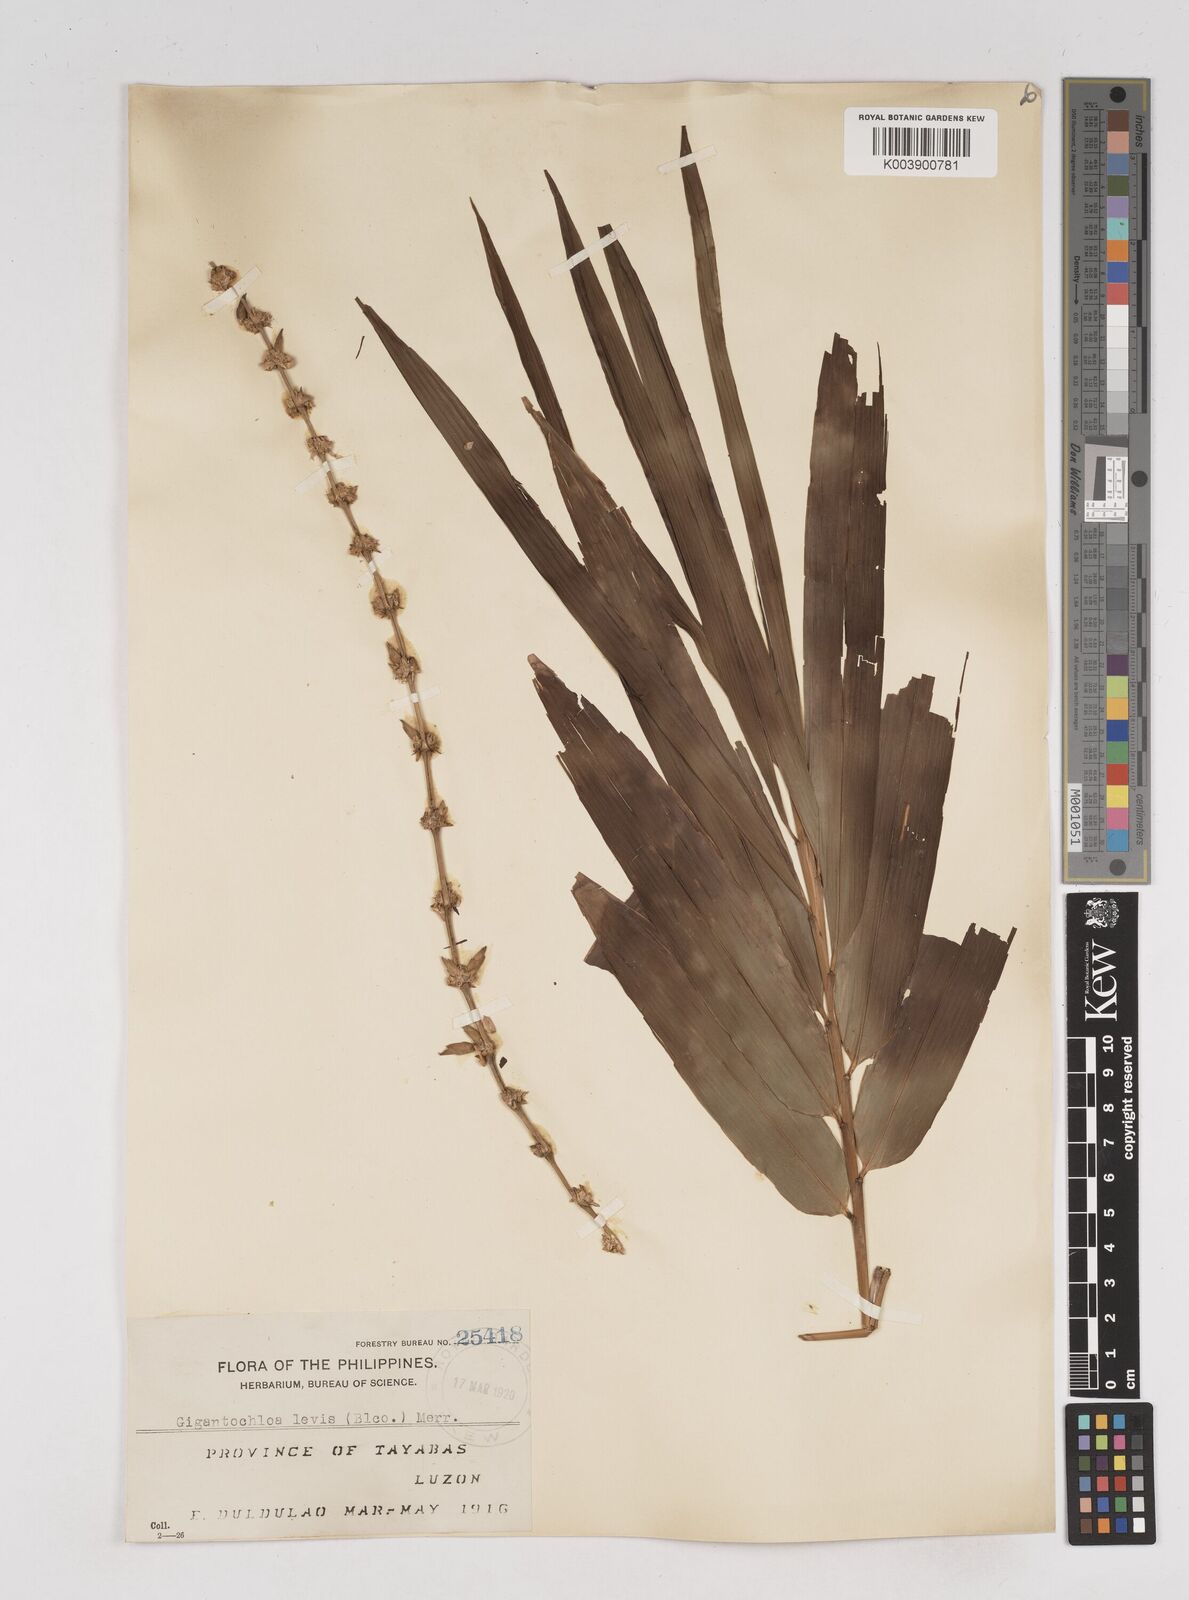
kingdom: Plantae
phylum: Tracheophyta
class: Liliopsida
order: Poales
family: Poaceae
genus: Gigantochloa
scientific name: Gigantochloa levis
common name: Smooth-shoot gigantochloa
